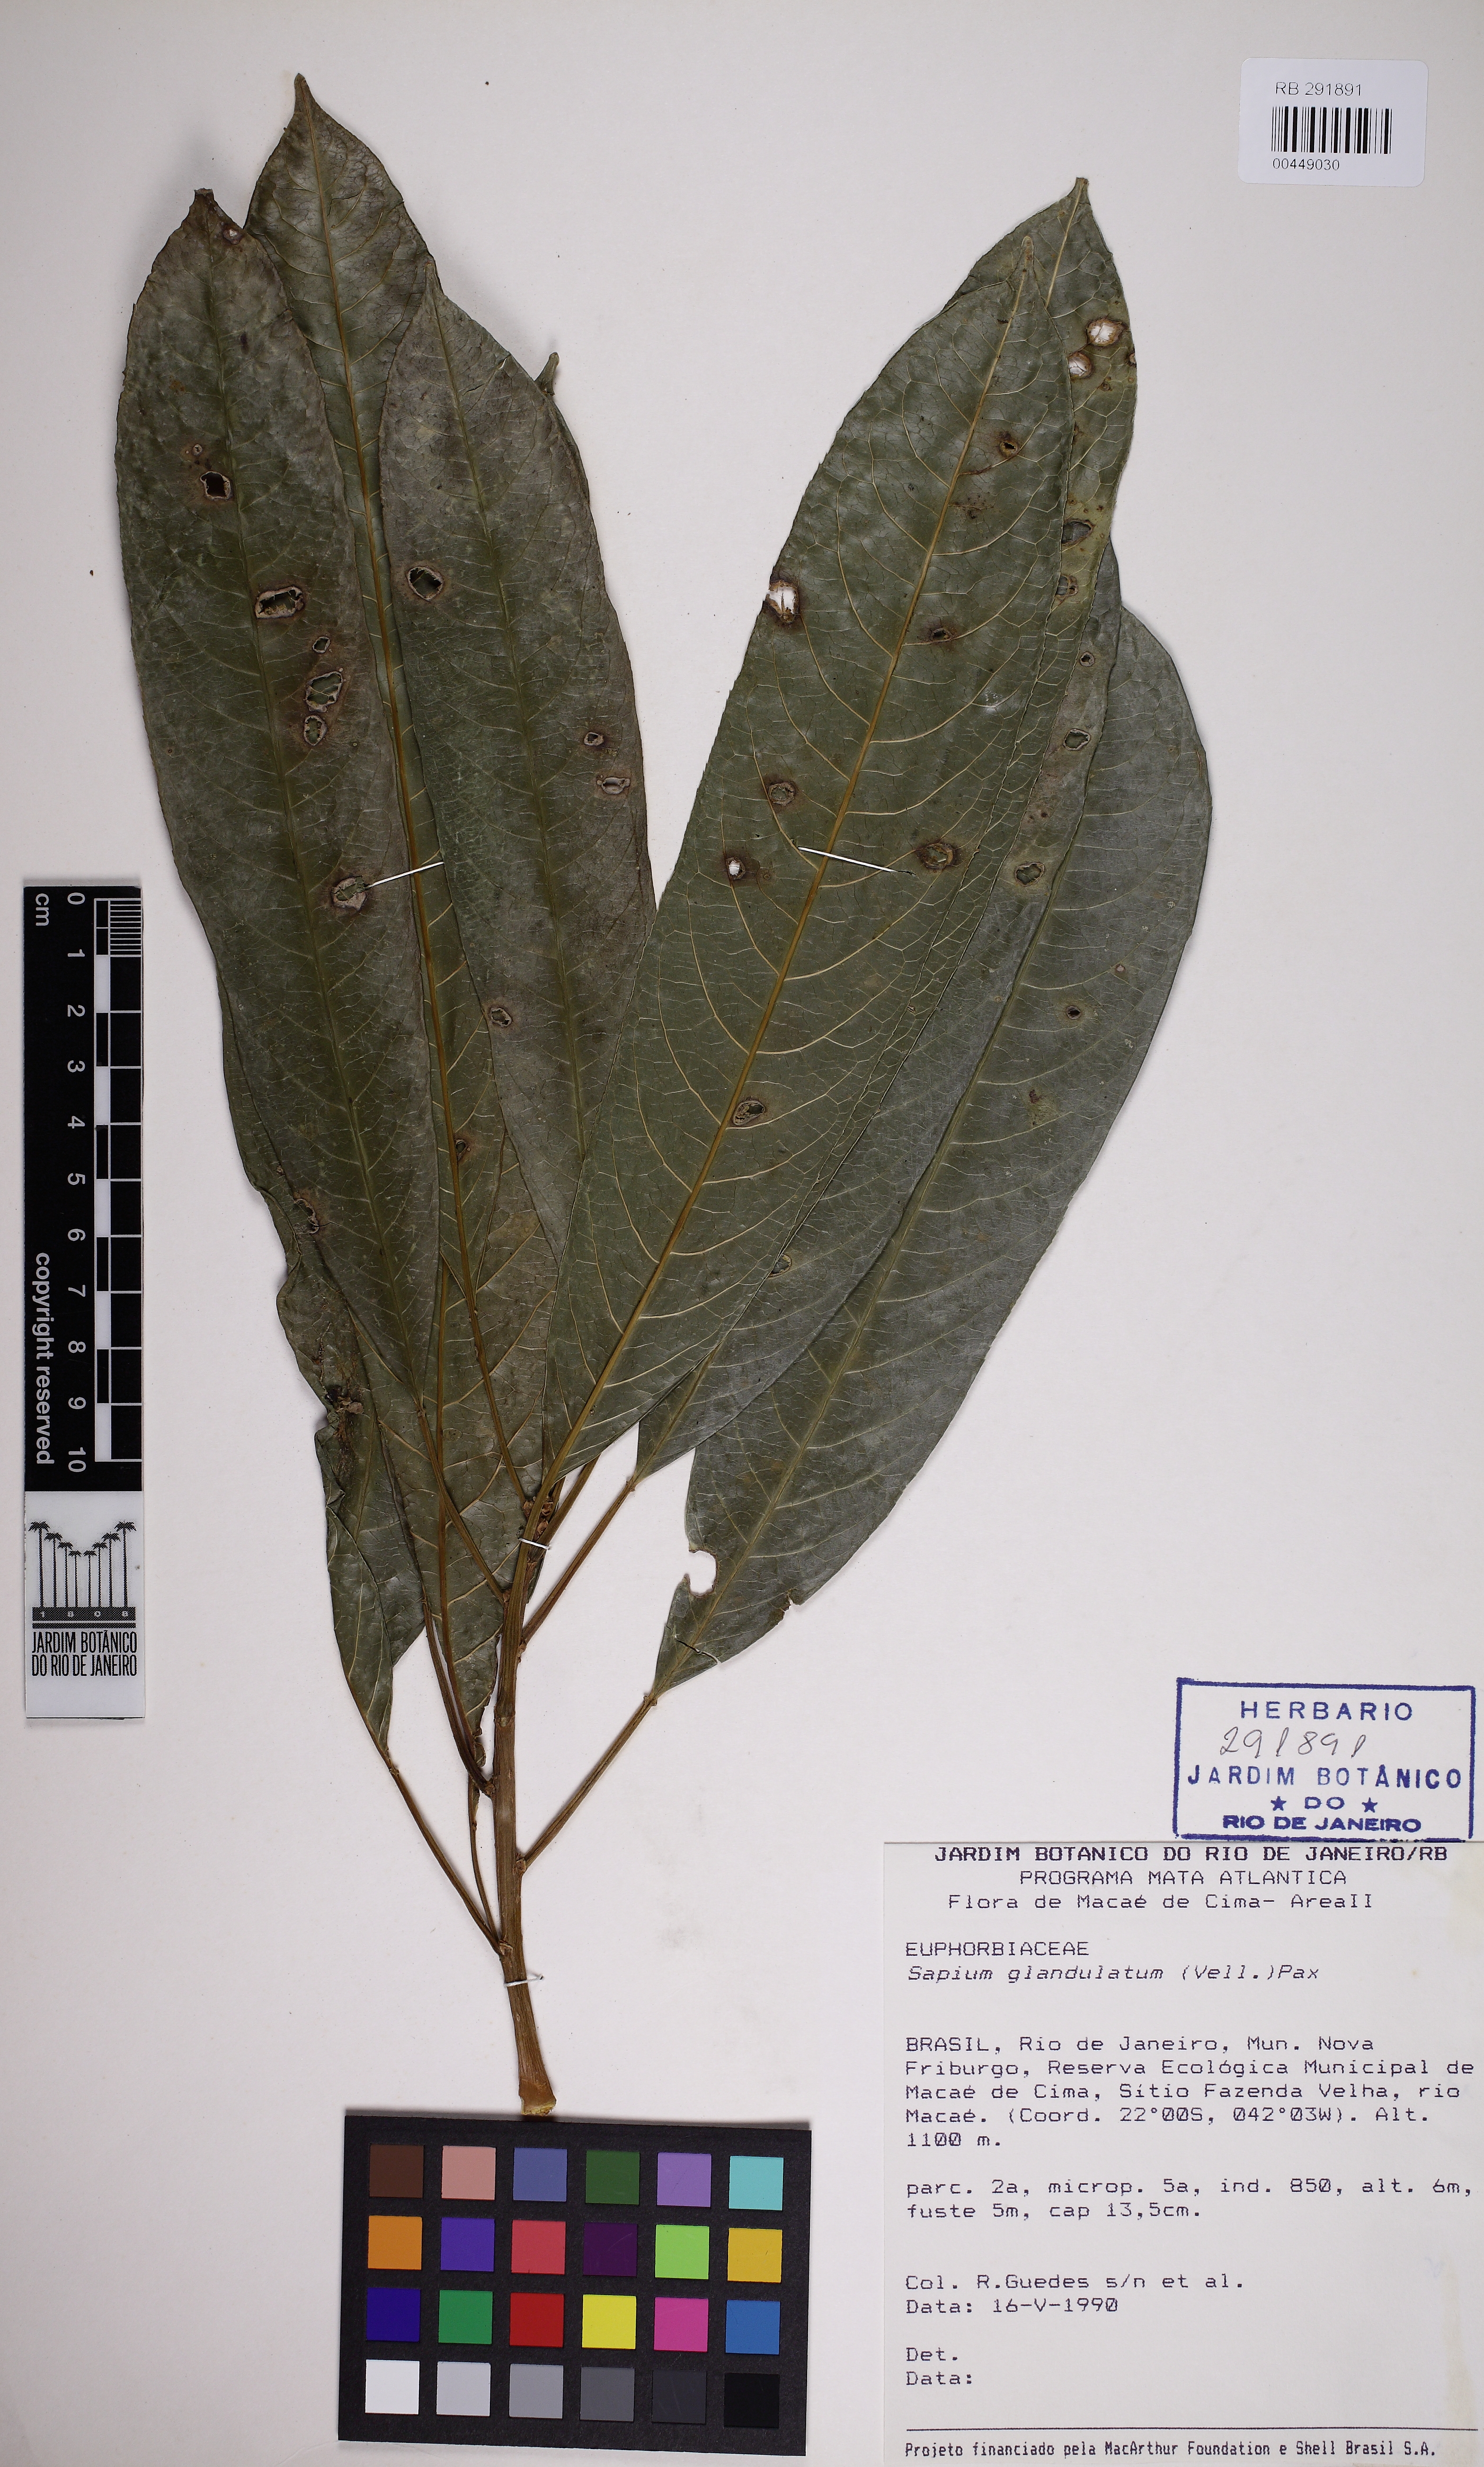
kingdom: Plantae
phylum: Tracheophyta
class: Magnoliopsida
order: Malpighiales
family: Euphorbiaceae
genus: Sapium
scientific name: Sapium glandulosum
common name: Milktree
